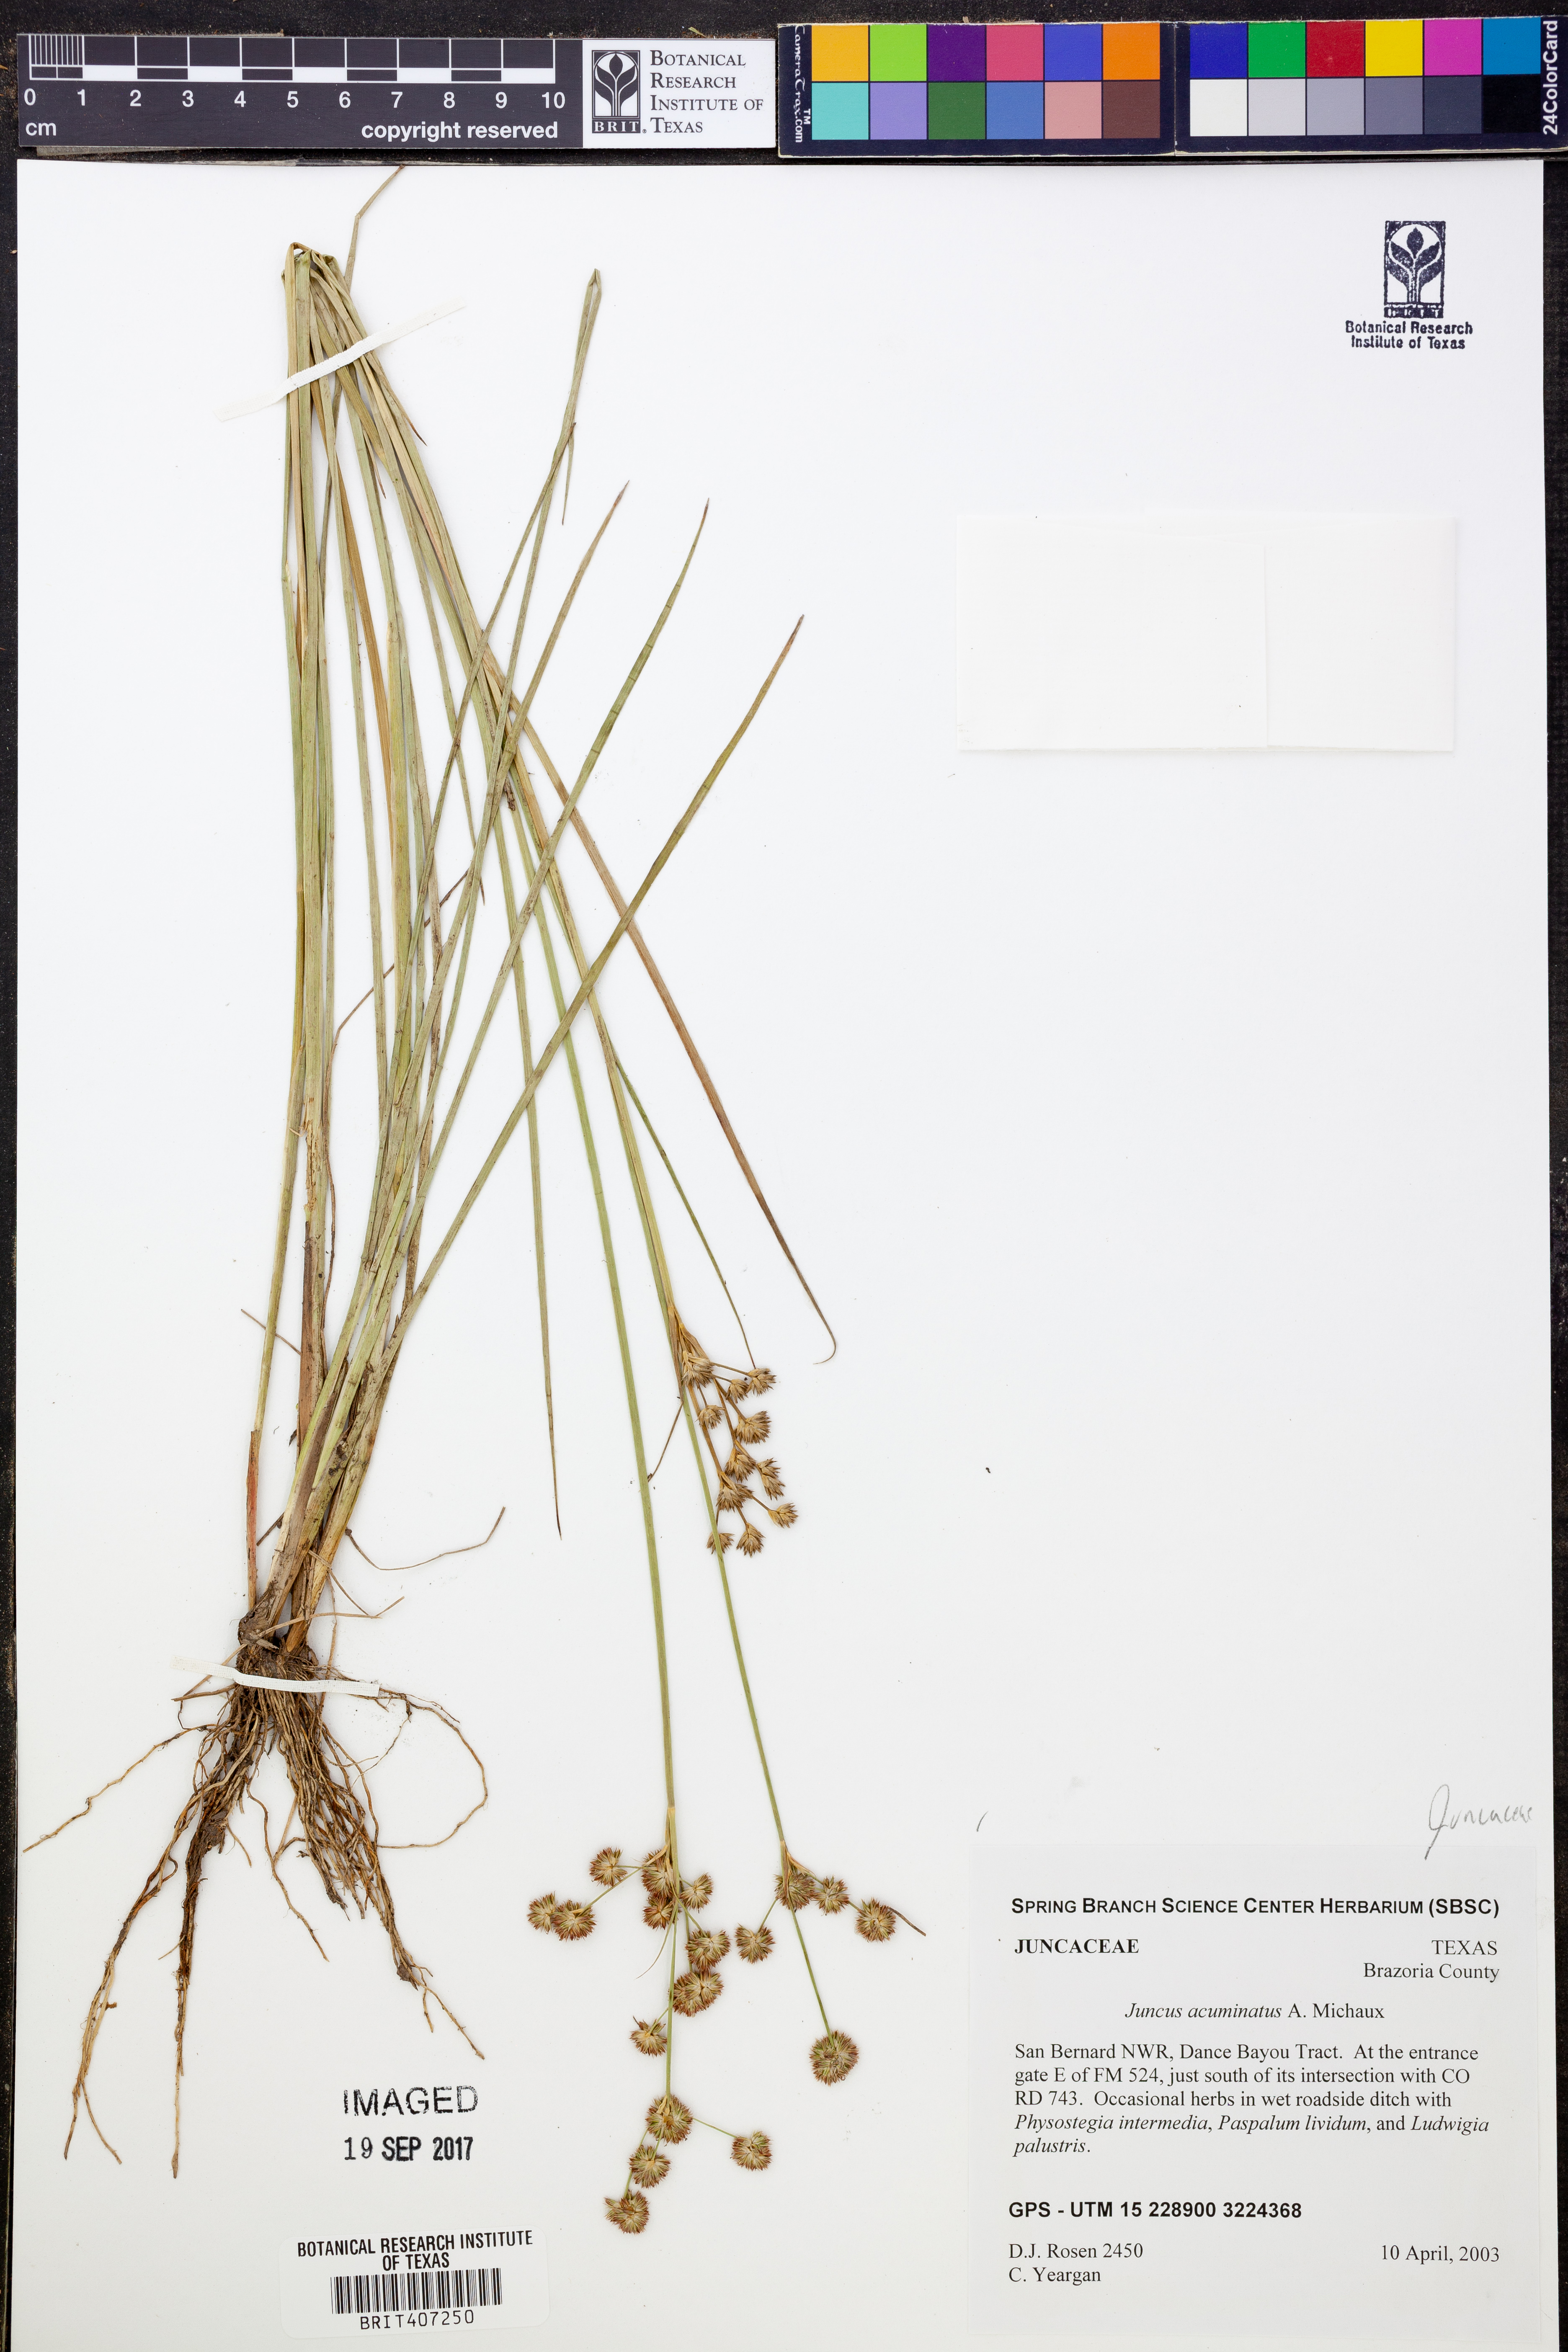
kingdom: Plantae
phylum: Tracheophyta
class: Liliopsida
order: Poales
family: Juncaceae
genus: Juncus
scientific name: Juncus acuminatus
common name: Knotty-leaved rush
